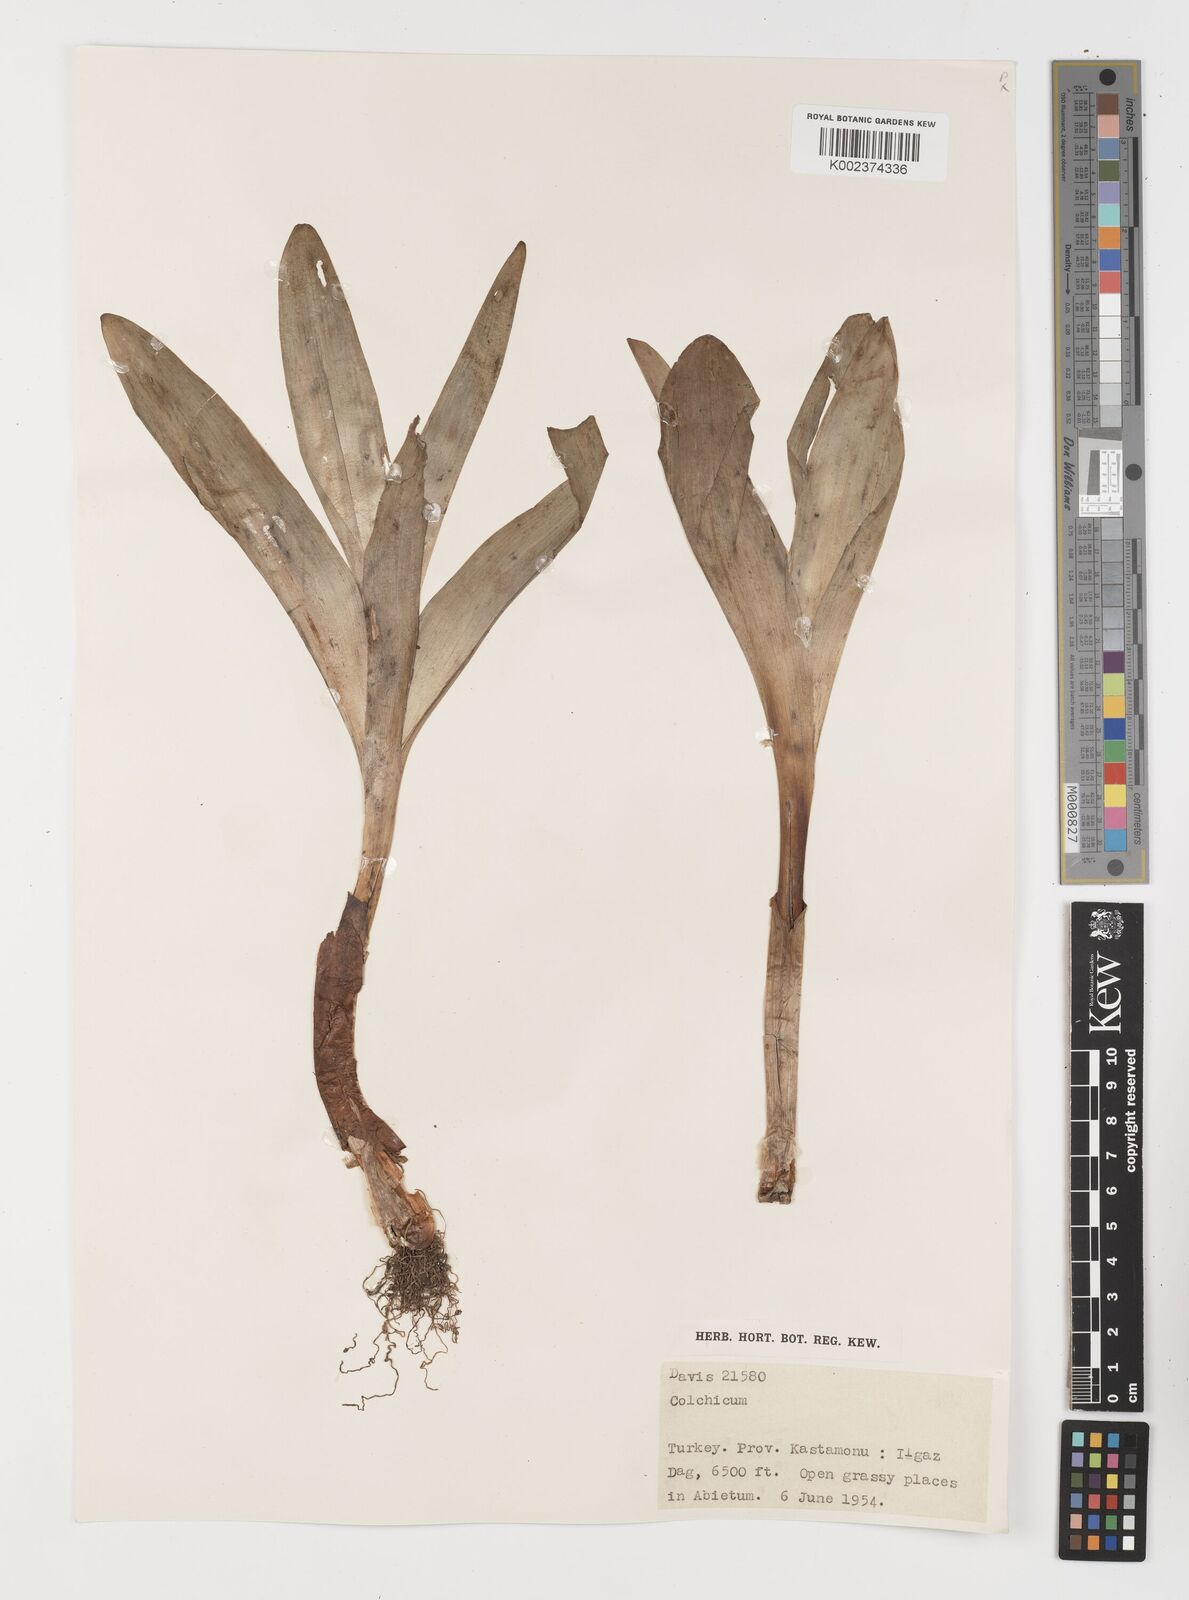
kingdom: Plantae
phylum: Tracheophyta
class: Liliopsida
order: Liliales
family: Colchicaceae
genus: Colchicum
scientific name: Colchicum
